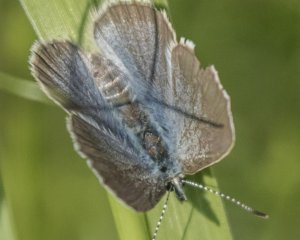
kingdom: Animalia
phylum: Arthropoda
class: Insecta
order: Lepidoptera
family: Lycaenidae
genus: Glaucopsyche
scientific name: Glaucopsyche lygdamus
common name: Silvery Blue
